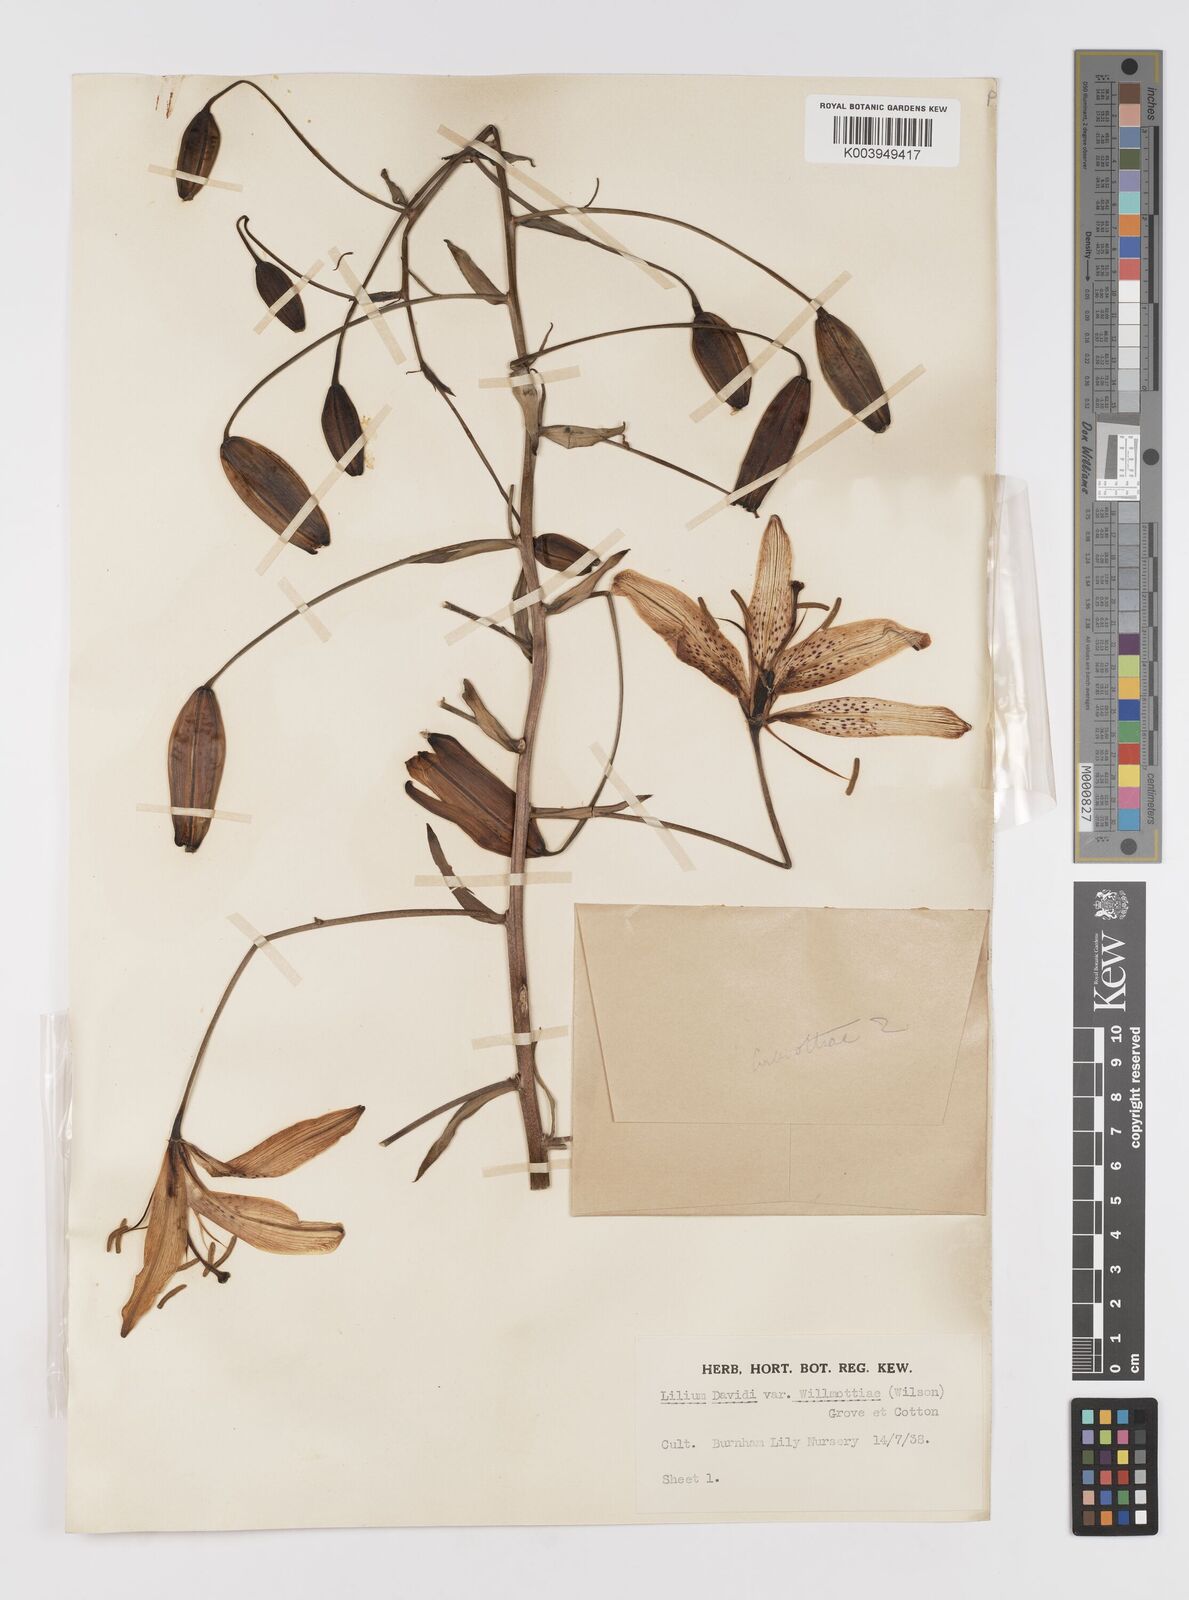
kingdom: Plantae
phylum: Tracheophyta
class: Liliopsida
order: Liliales
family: Liliaceae
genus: Lilium
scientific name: Lilium davidii
